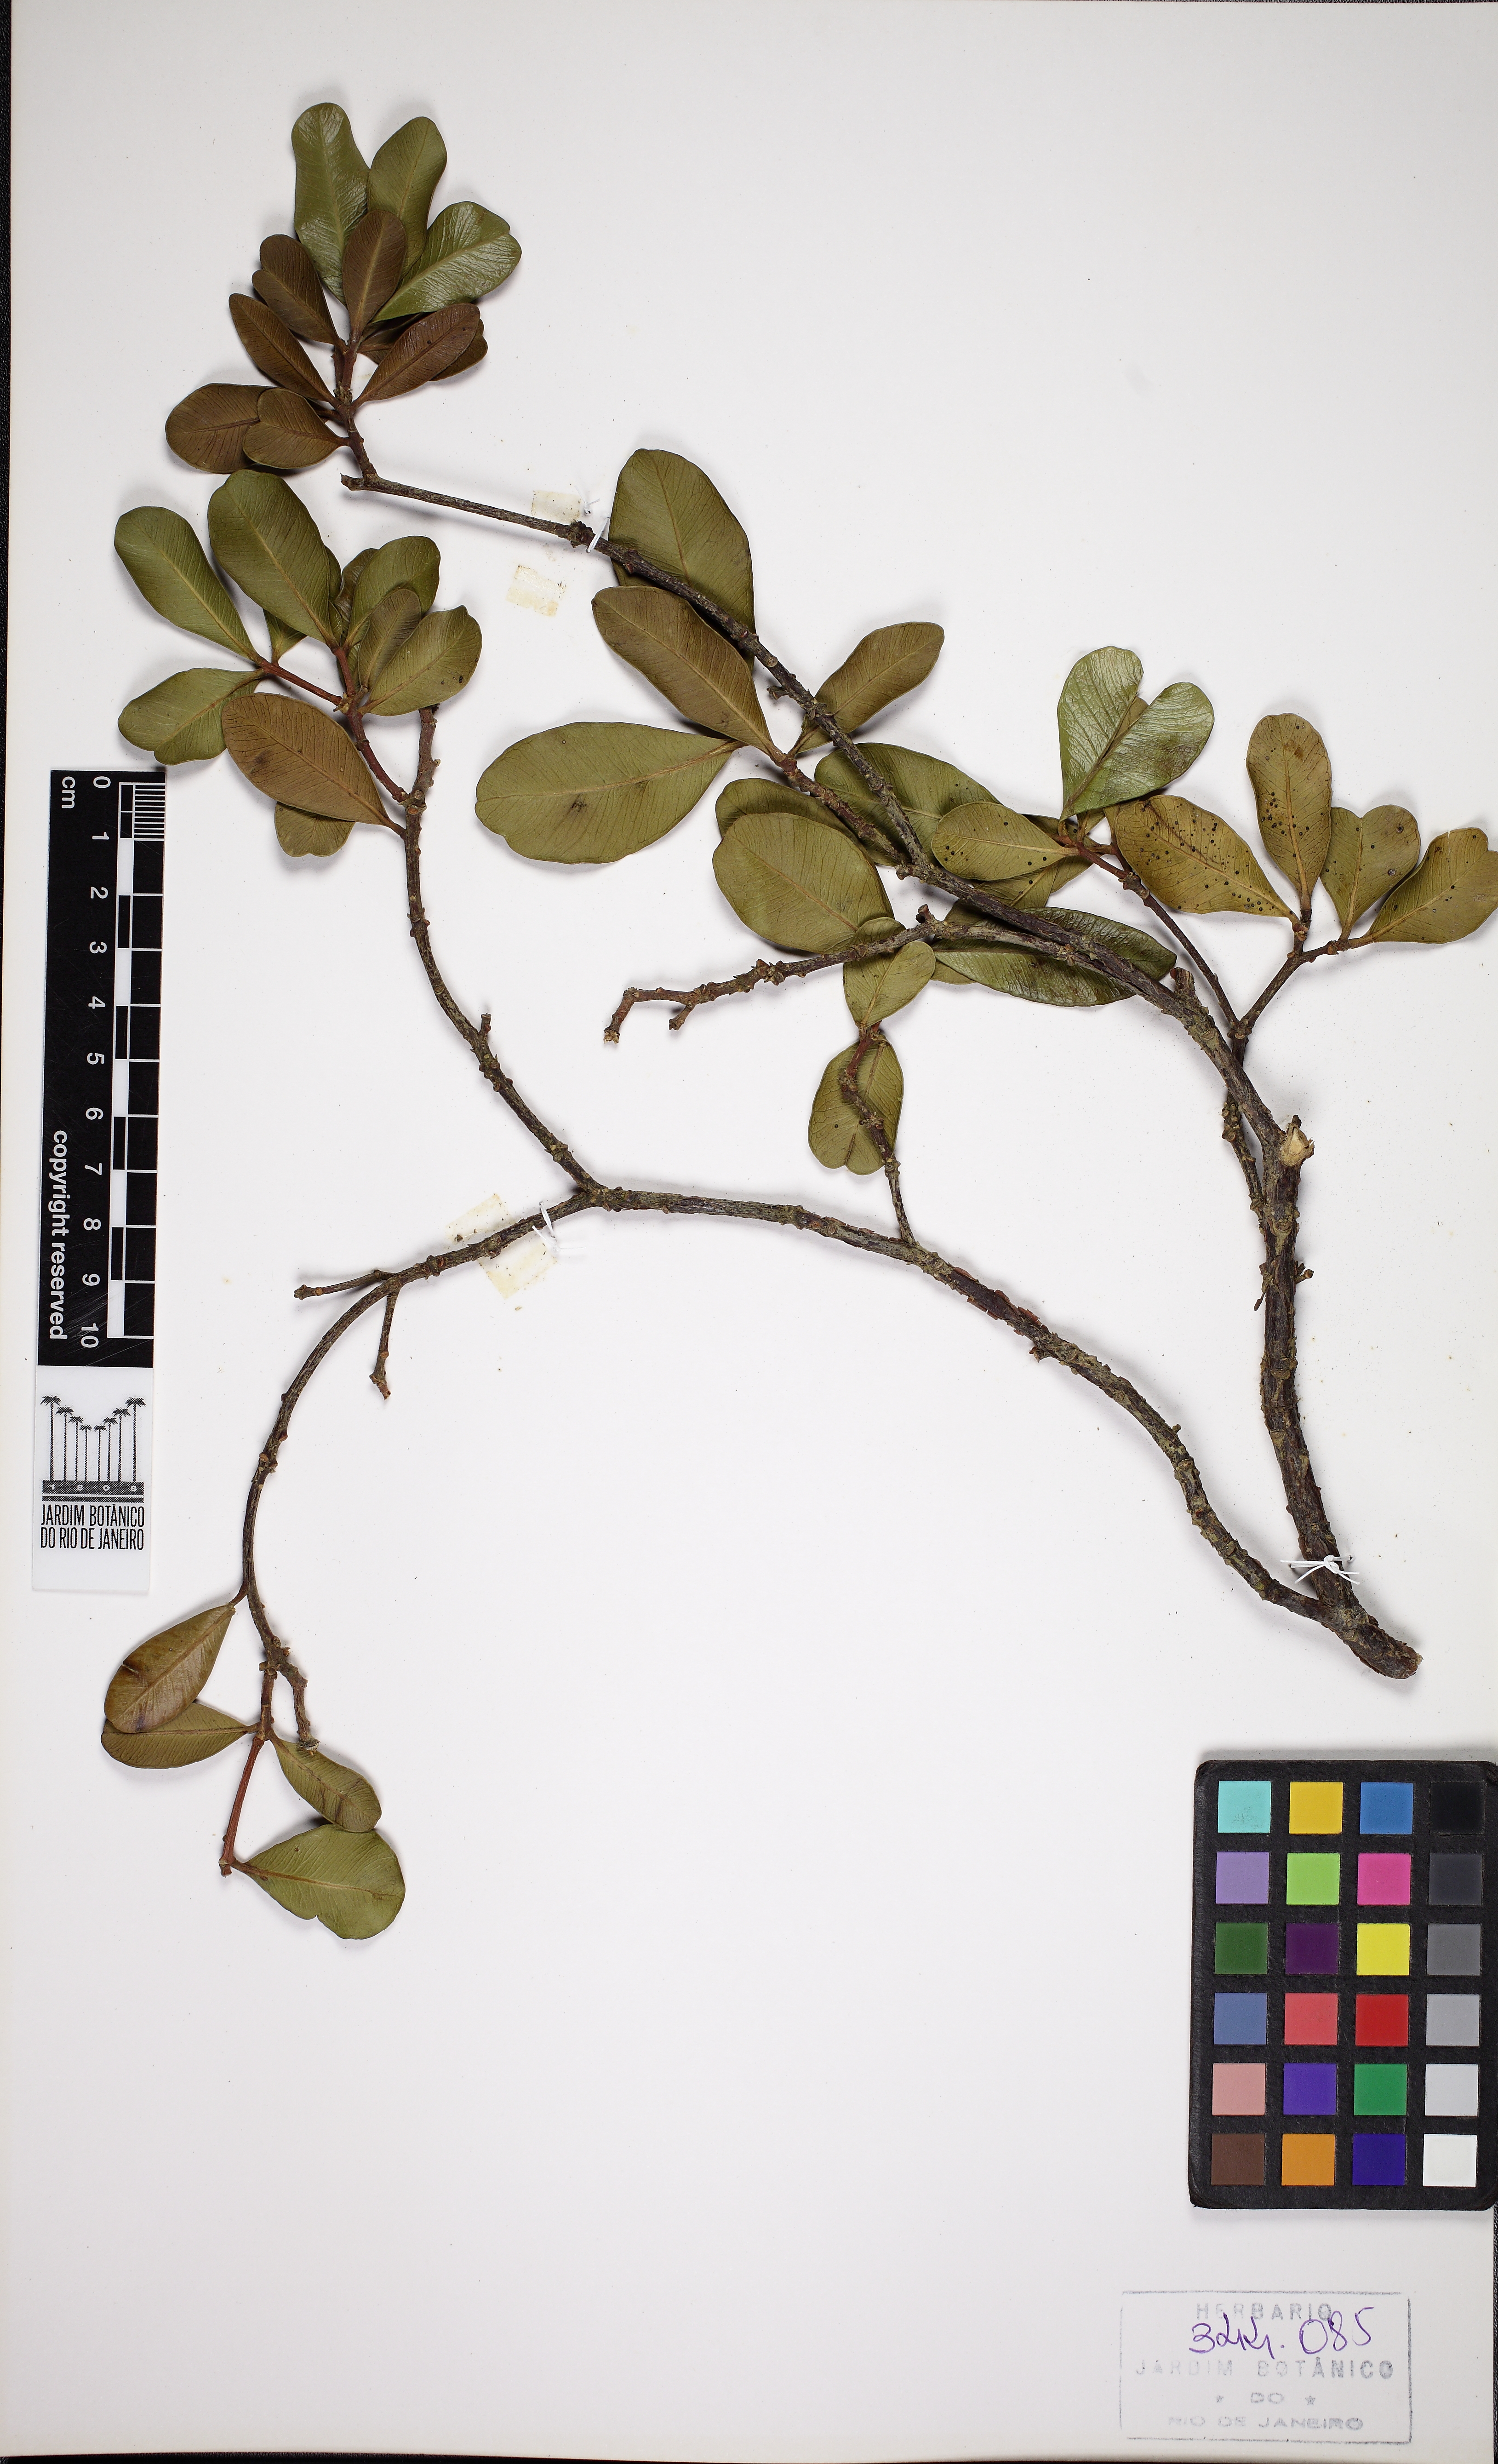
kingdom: Plantae
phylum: Tracheophyta
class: Magnoliopsida
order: Gentianales
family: Apocynaceae
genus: Aspidosperma
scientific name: Aspidosperma polyneuron
